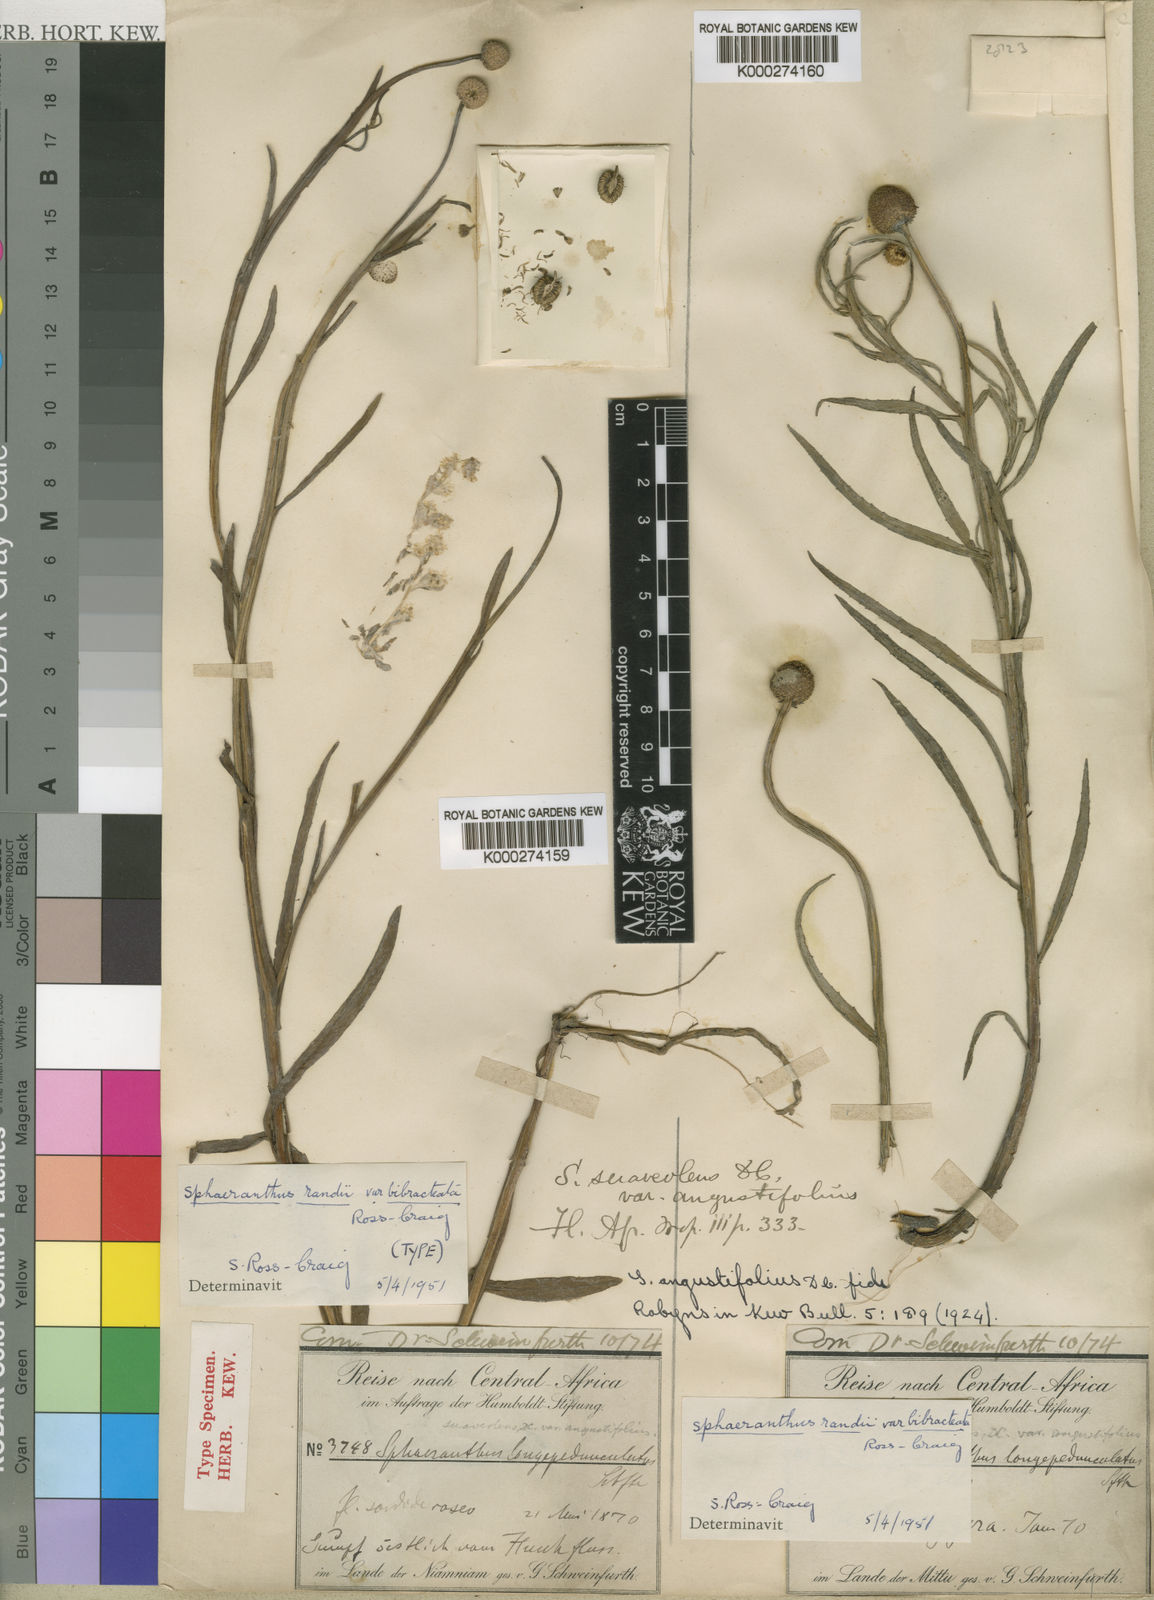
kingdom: Plantae
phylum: Tracheophyta
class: Magnoliopsida
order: Asterales
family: Asteraceae
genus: Sphaeranthus
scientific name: Sphaeranthus randii
